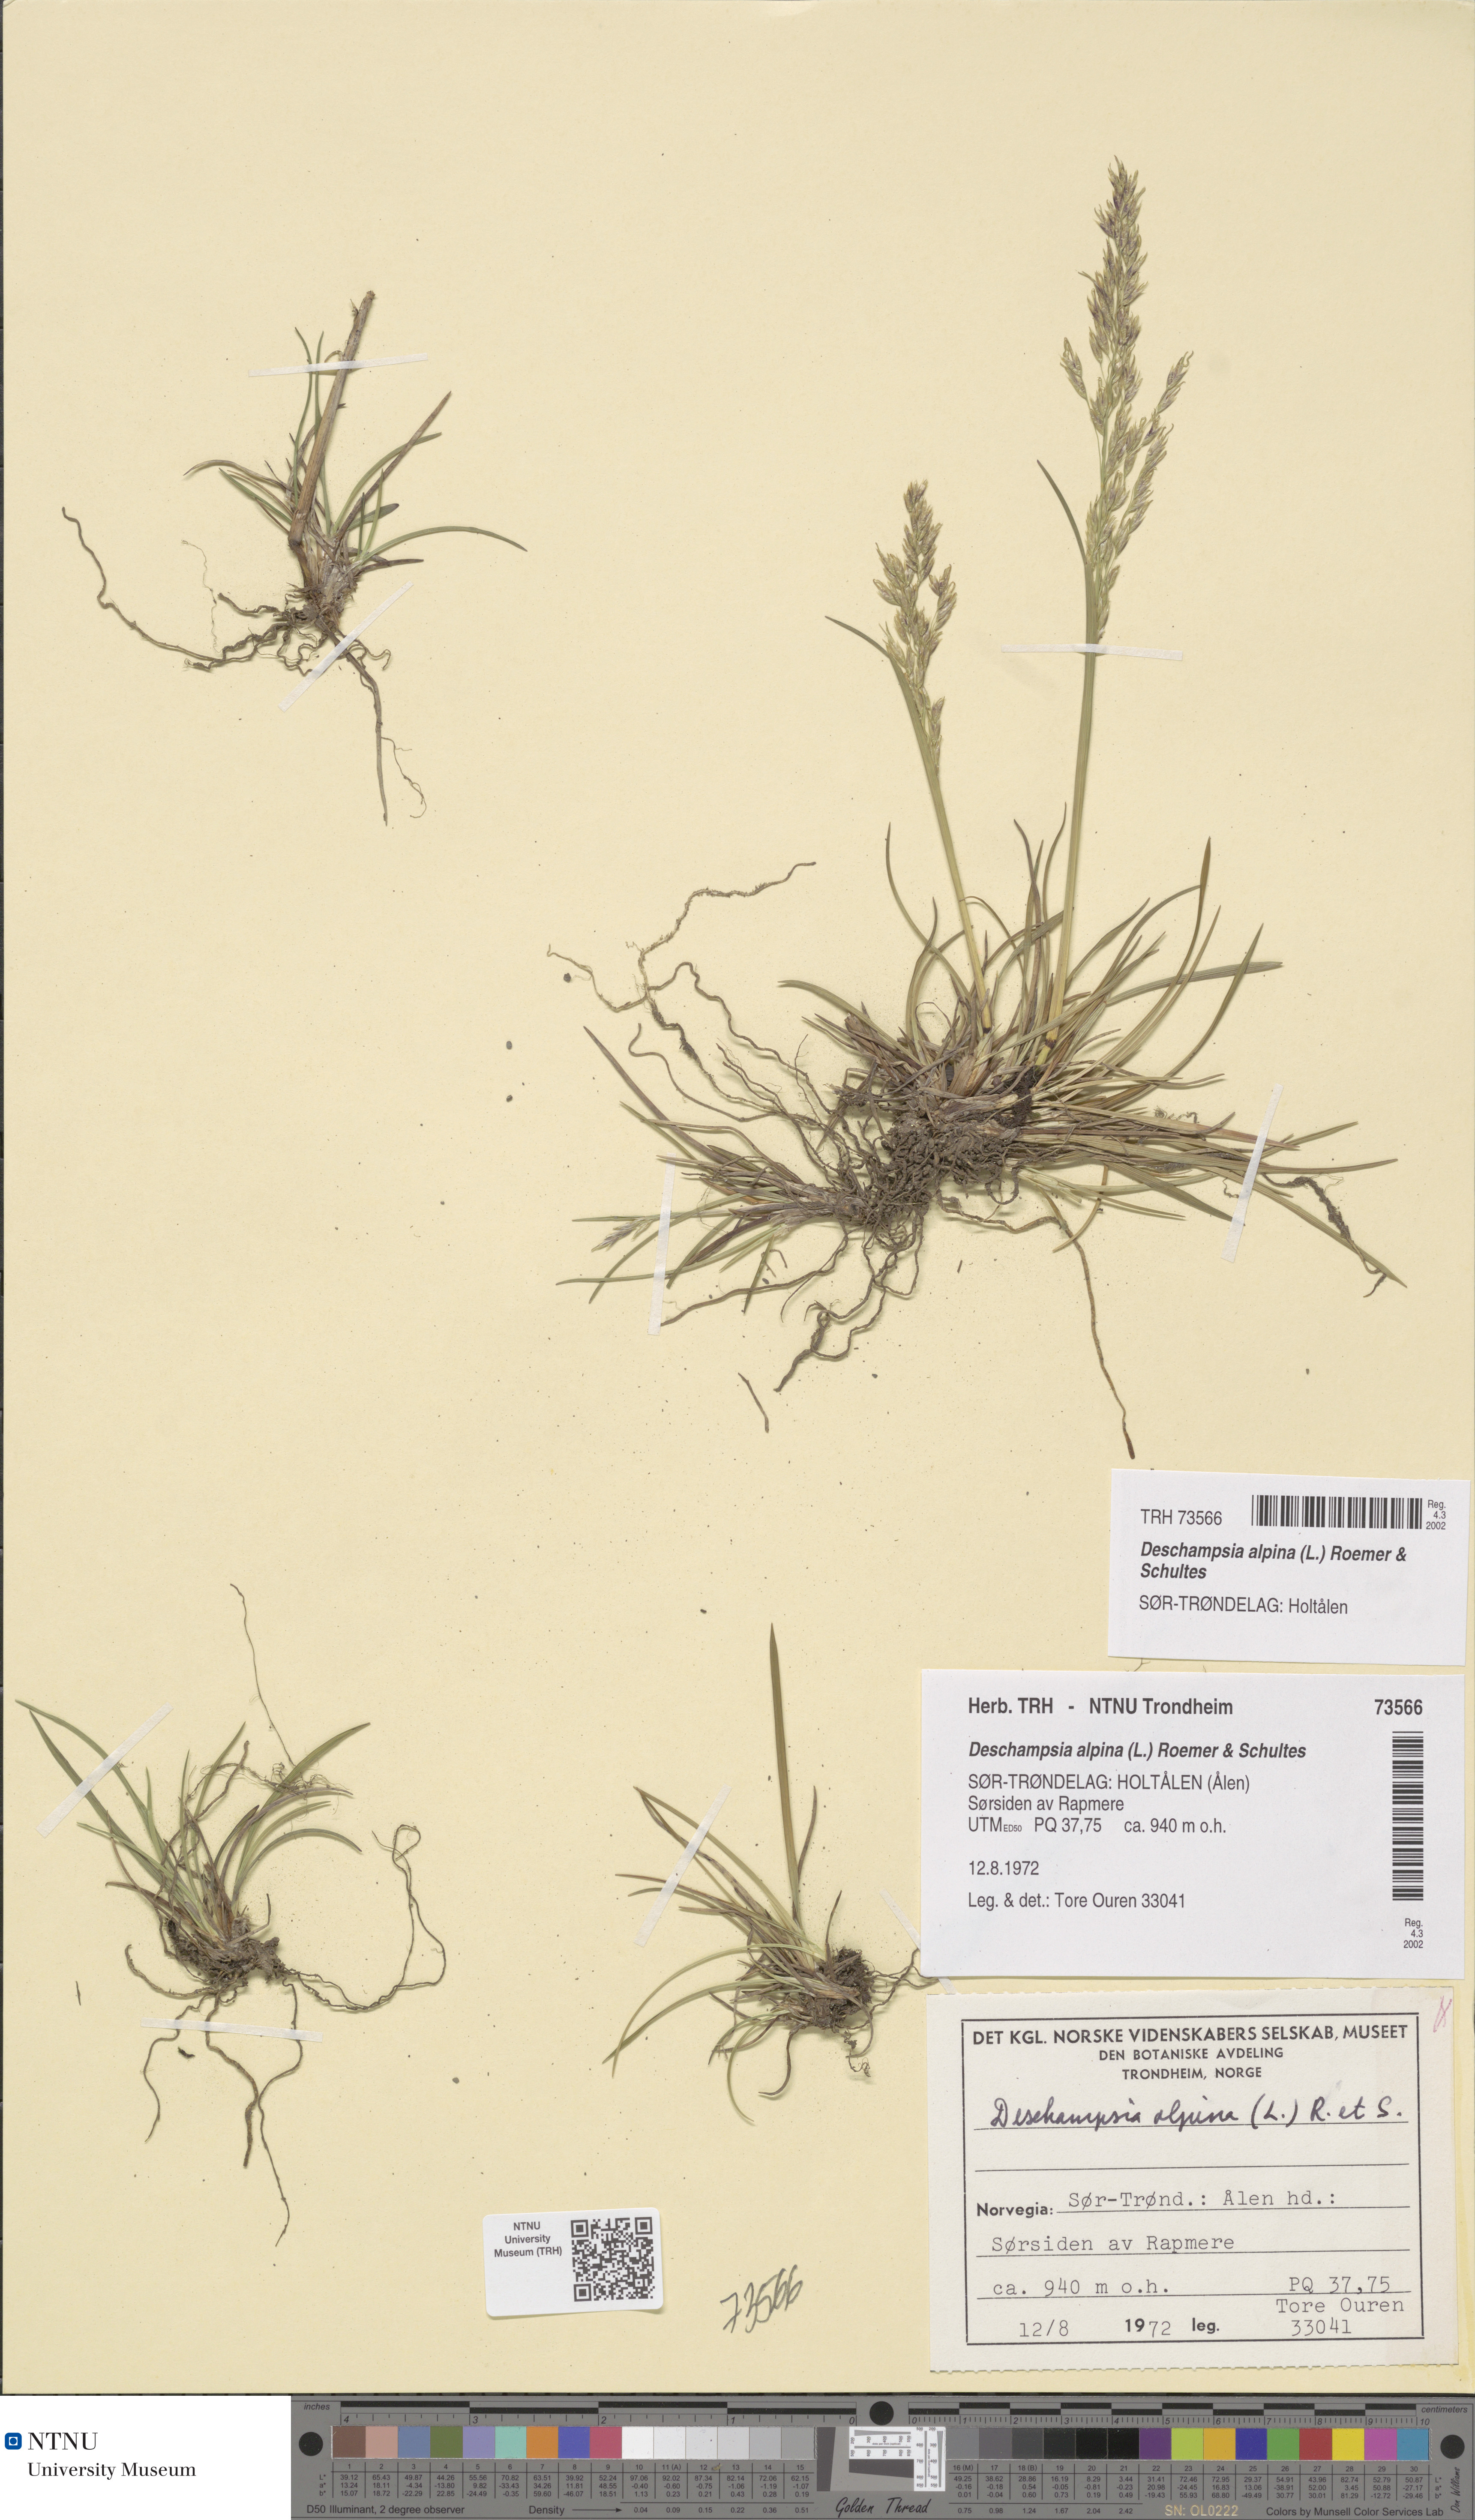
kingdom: Plantae
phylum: Tracheophyta
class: Liliopsida
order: Poales
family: Poaceae
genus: Deschampsia
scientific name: Deschampsia cespitosa
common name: Tufted hair-grass
